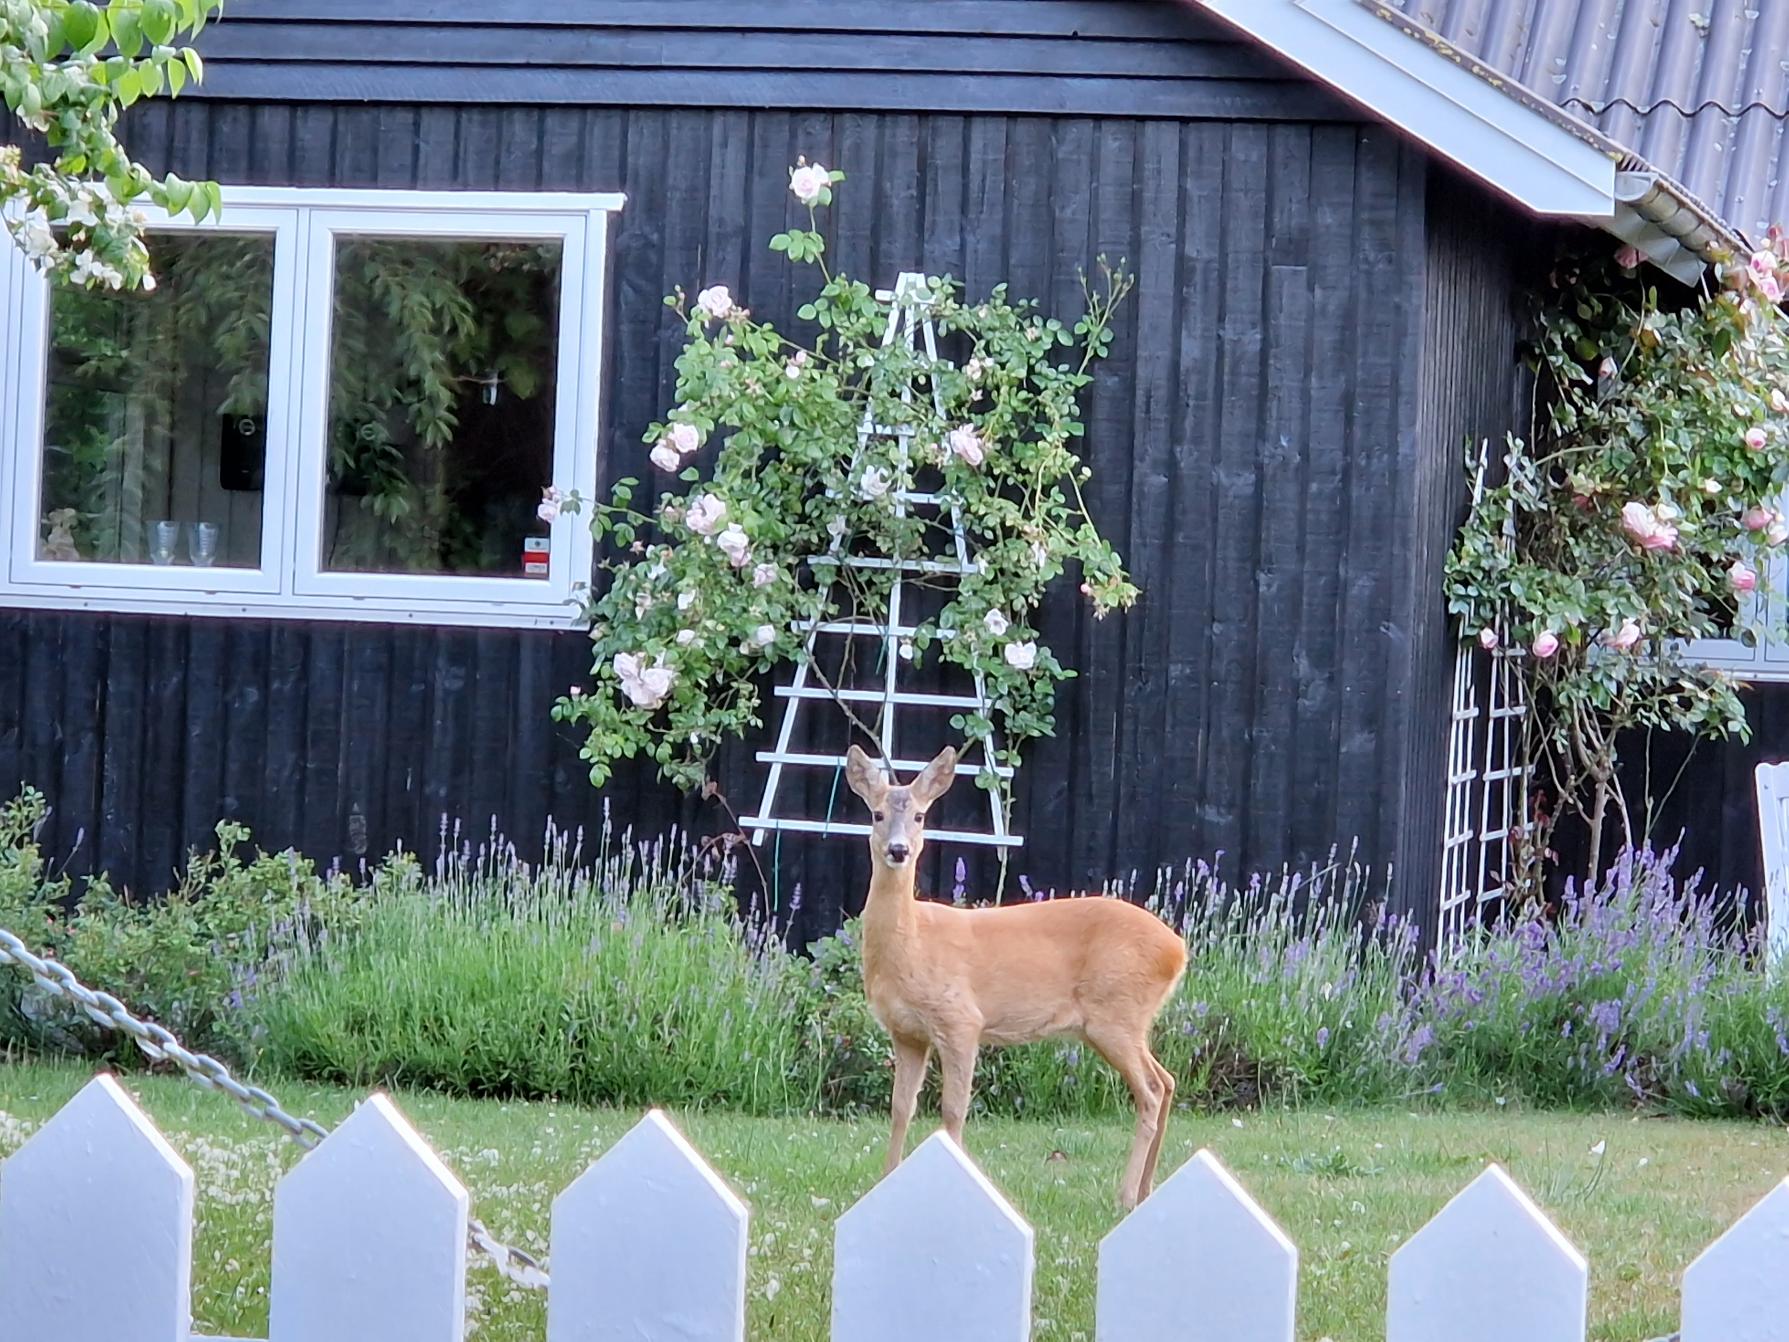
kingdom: Animalia
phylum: Chordata
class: Mammalia
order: Artiodactyla
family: Cervidae
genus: Capreolus
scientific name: Capreolus capreolus
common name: Rådyr
